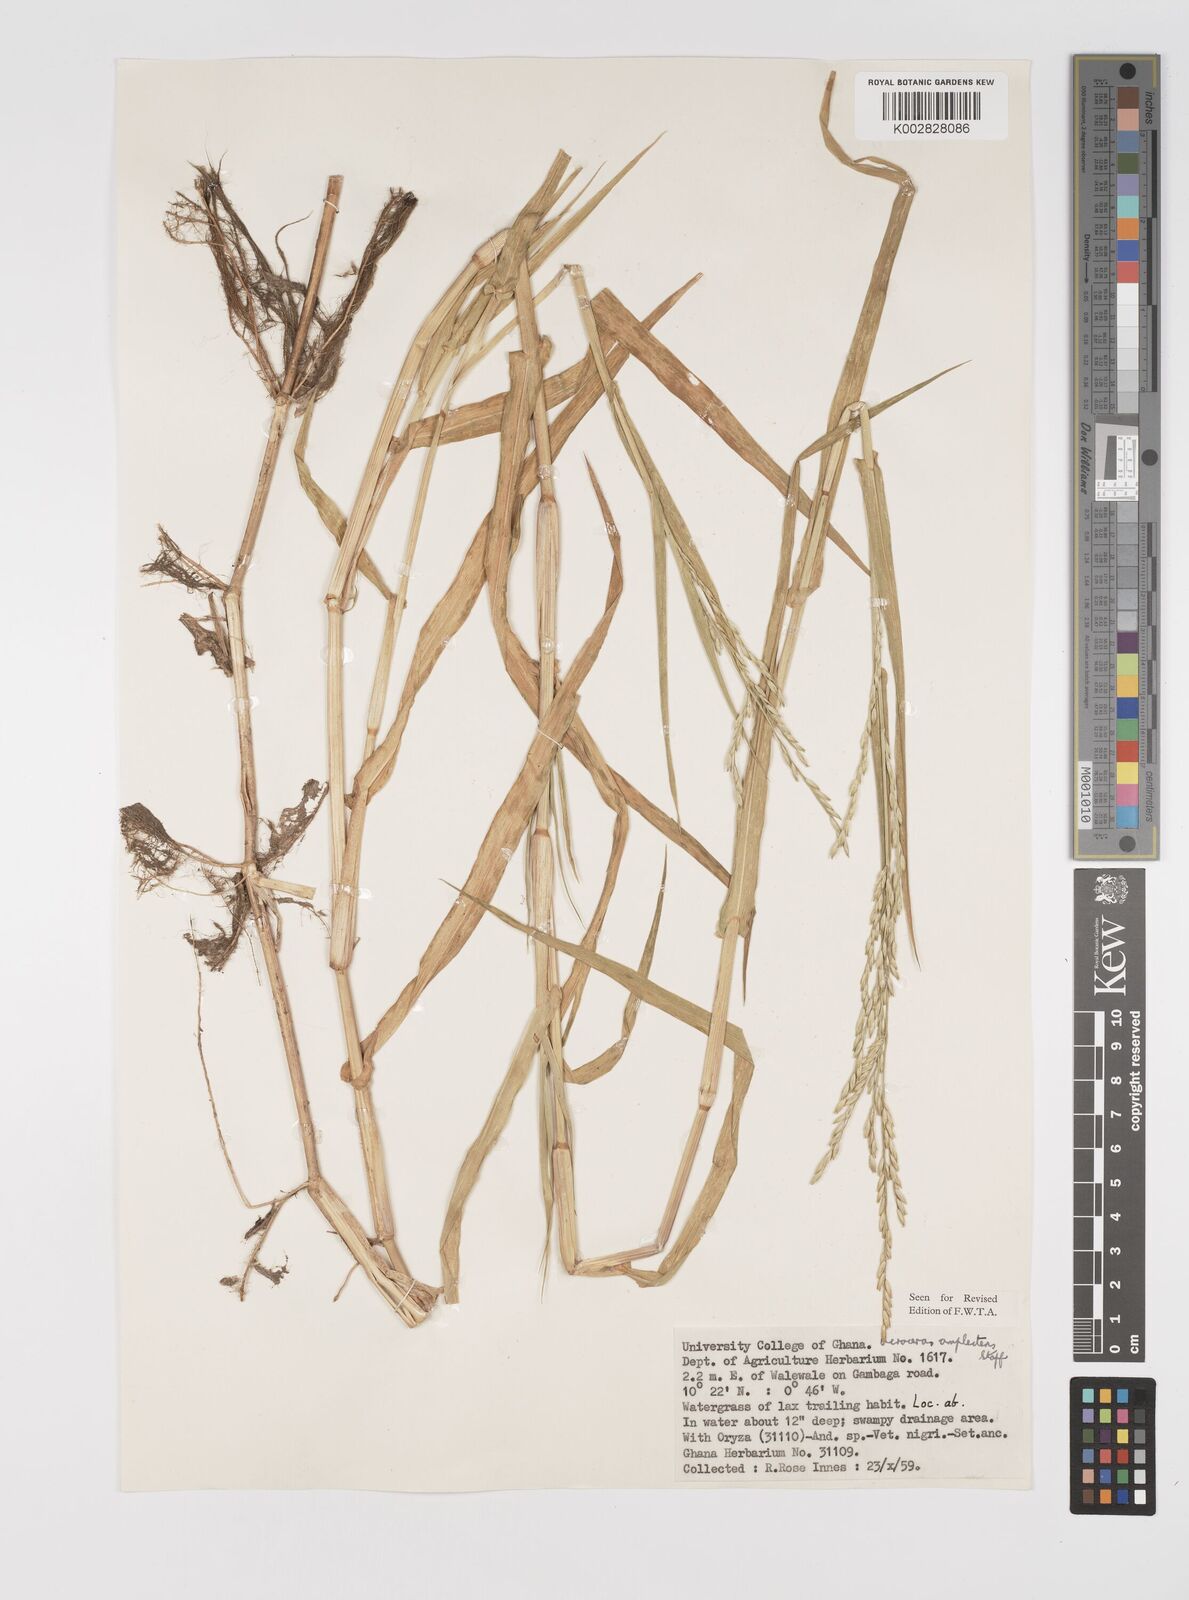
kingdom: Plantae
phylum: Tracheophyta
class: Liliopsida
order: Poales
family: Poaceae
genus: Acroceras
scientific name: Acroceras amplectens
